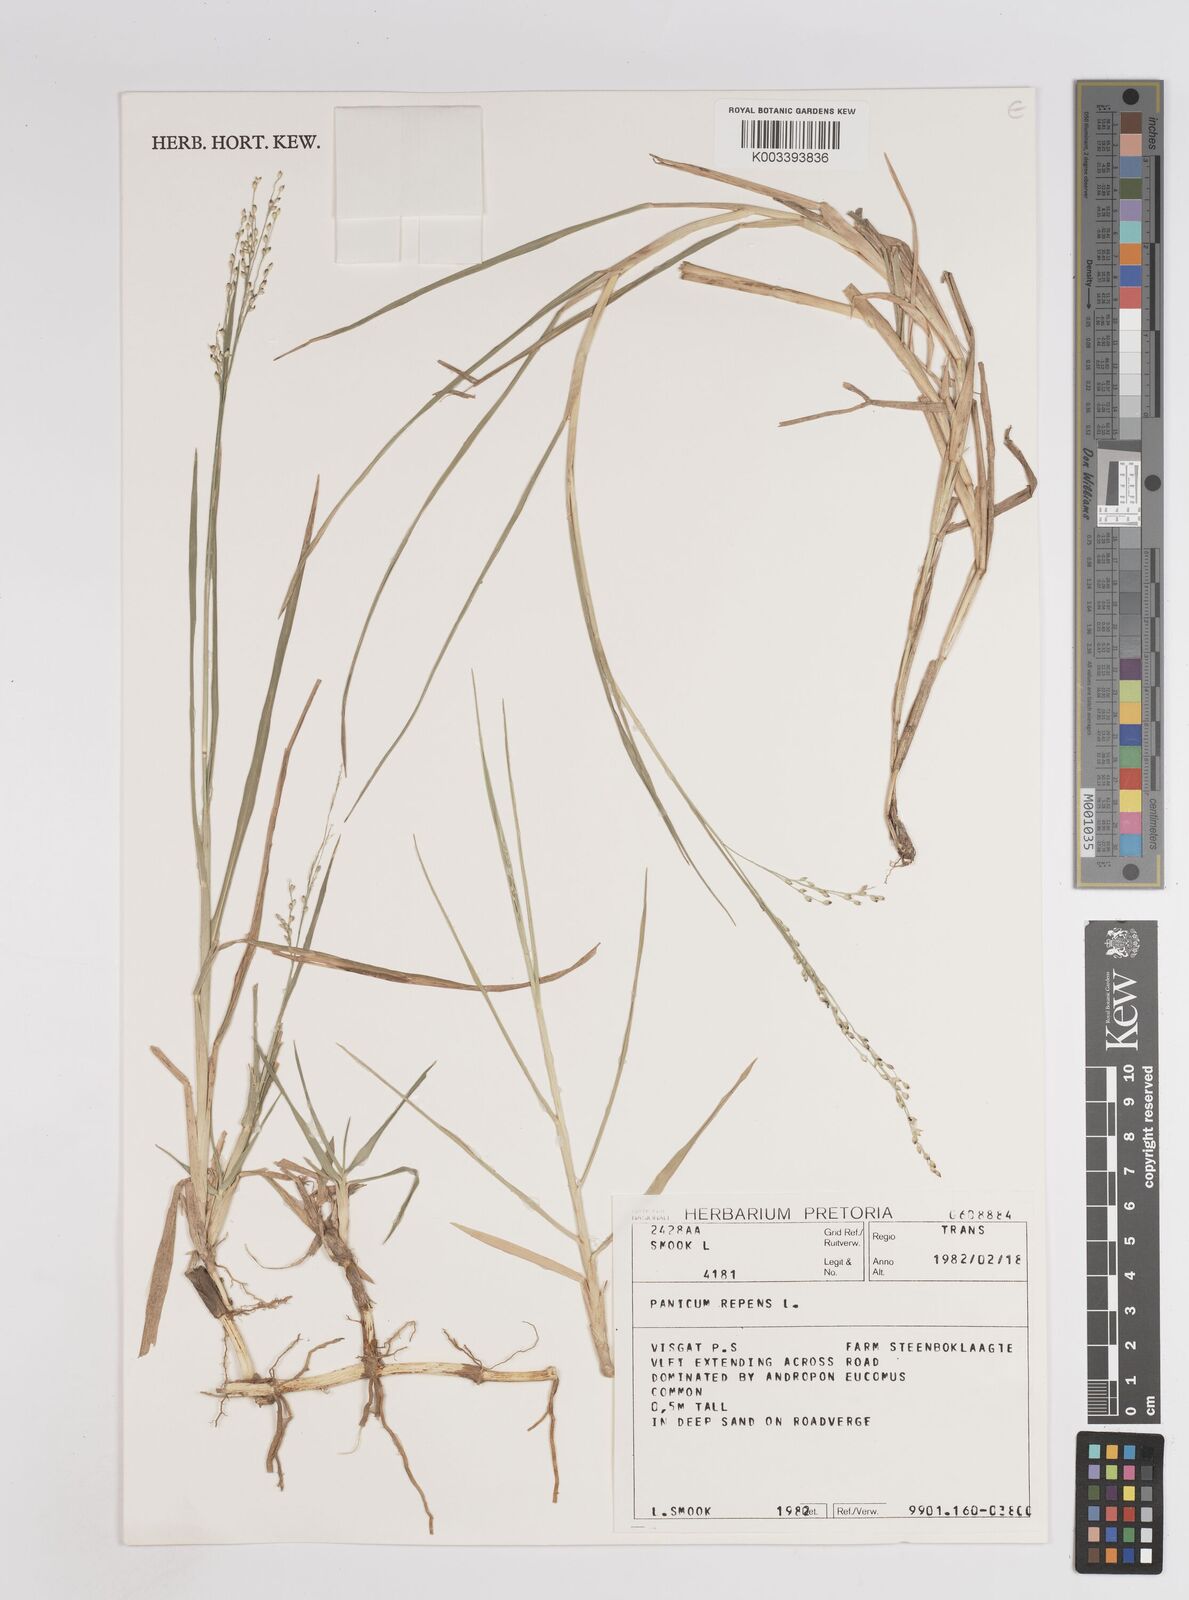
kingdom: Plantae
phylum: Tracheophyta
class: Liliopsida
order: Poales
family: Poaceae
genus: Panicum
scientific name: Panicum repens
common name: Torpedo grass
